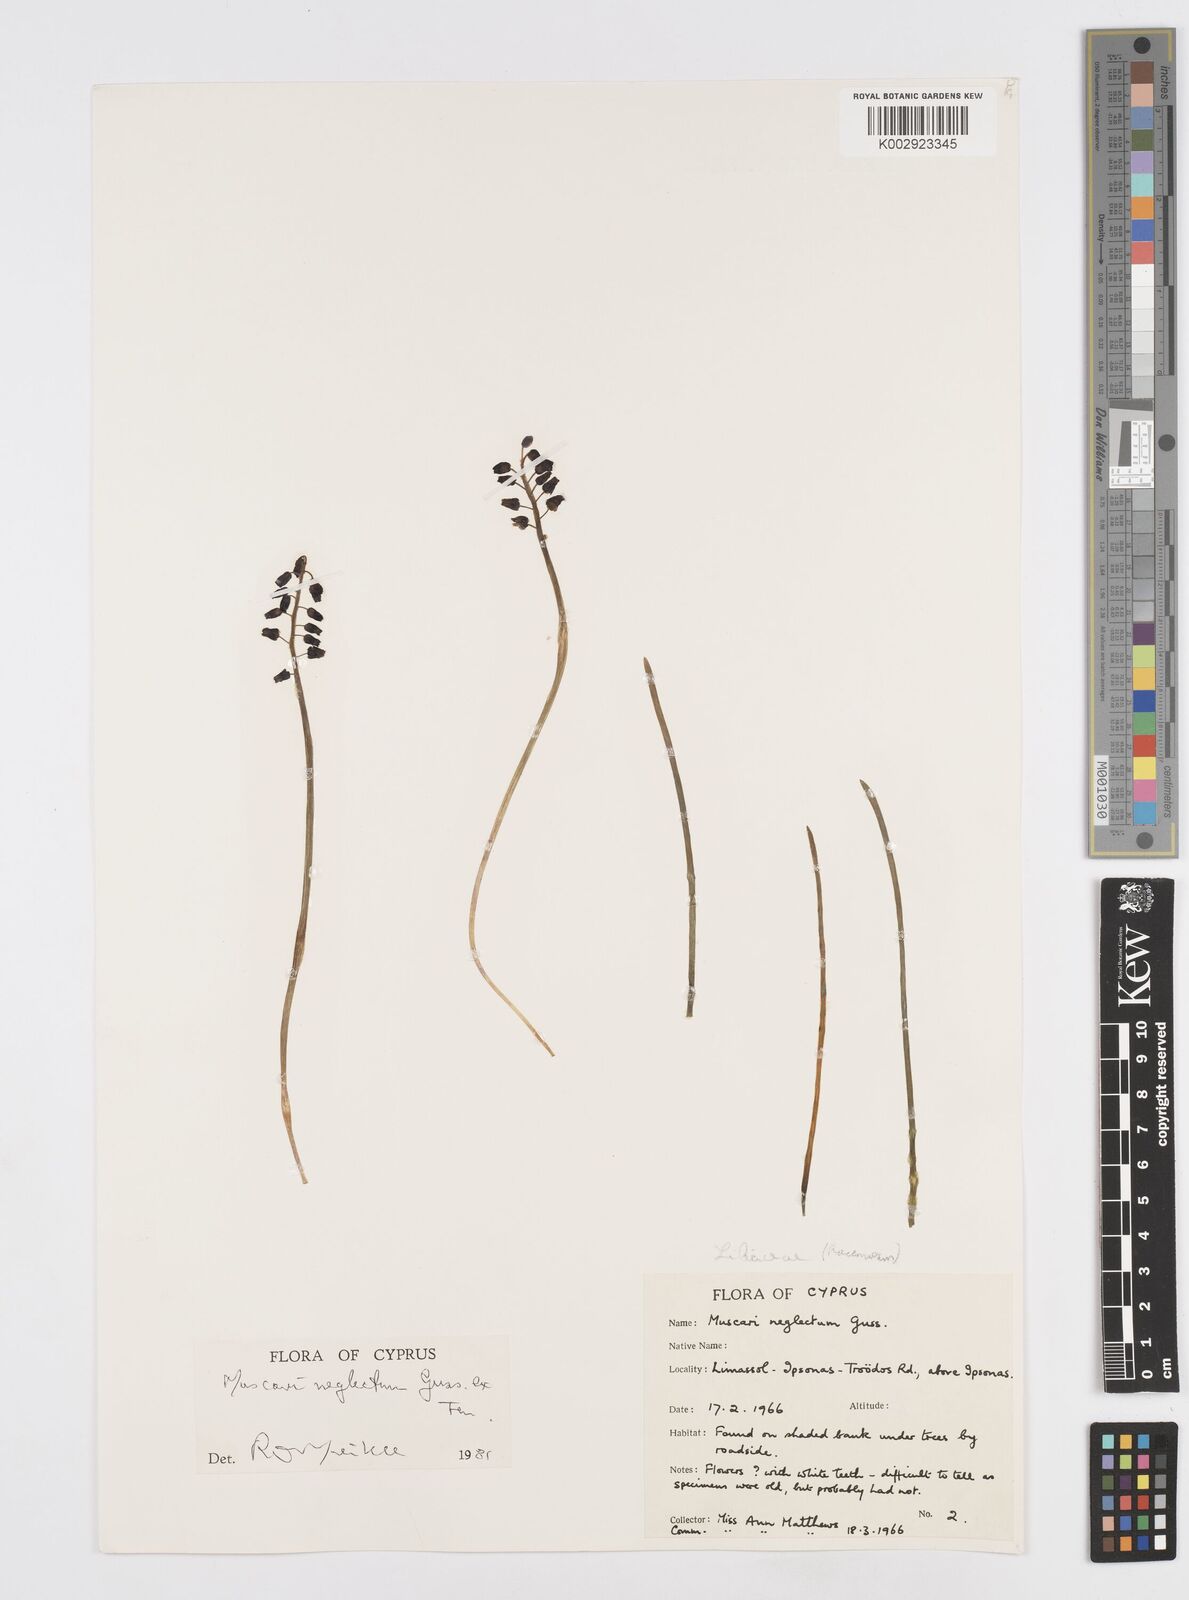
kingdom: Plantae
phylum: Tracheophyta
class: Liliopsida
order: Asparagales
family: Asparagaceae
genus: Muscari
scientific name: Muscari neglectum
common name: Grape-hyacinth
